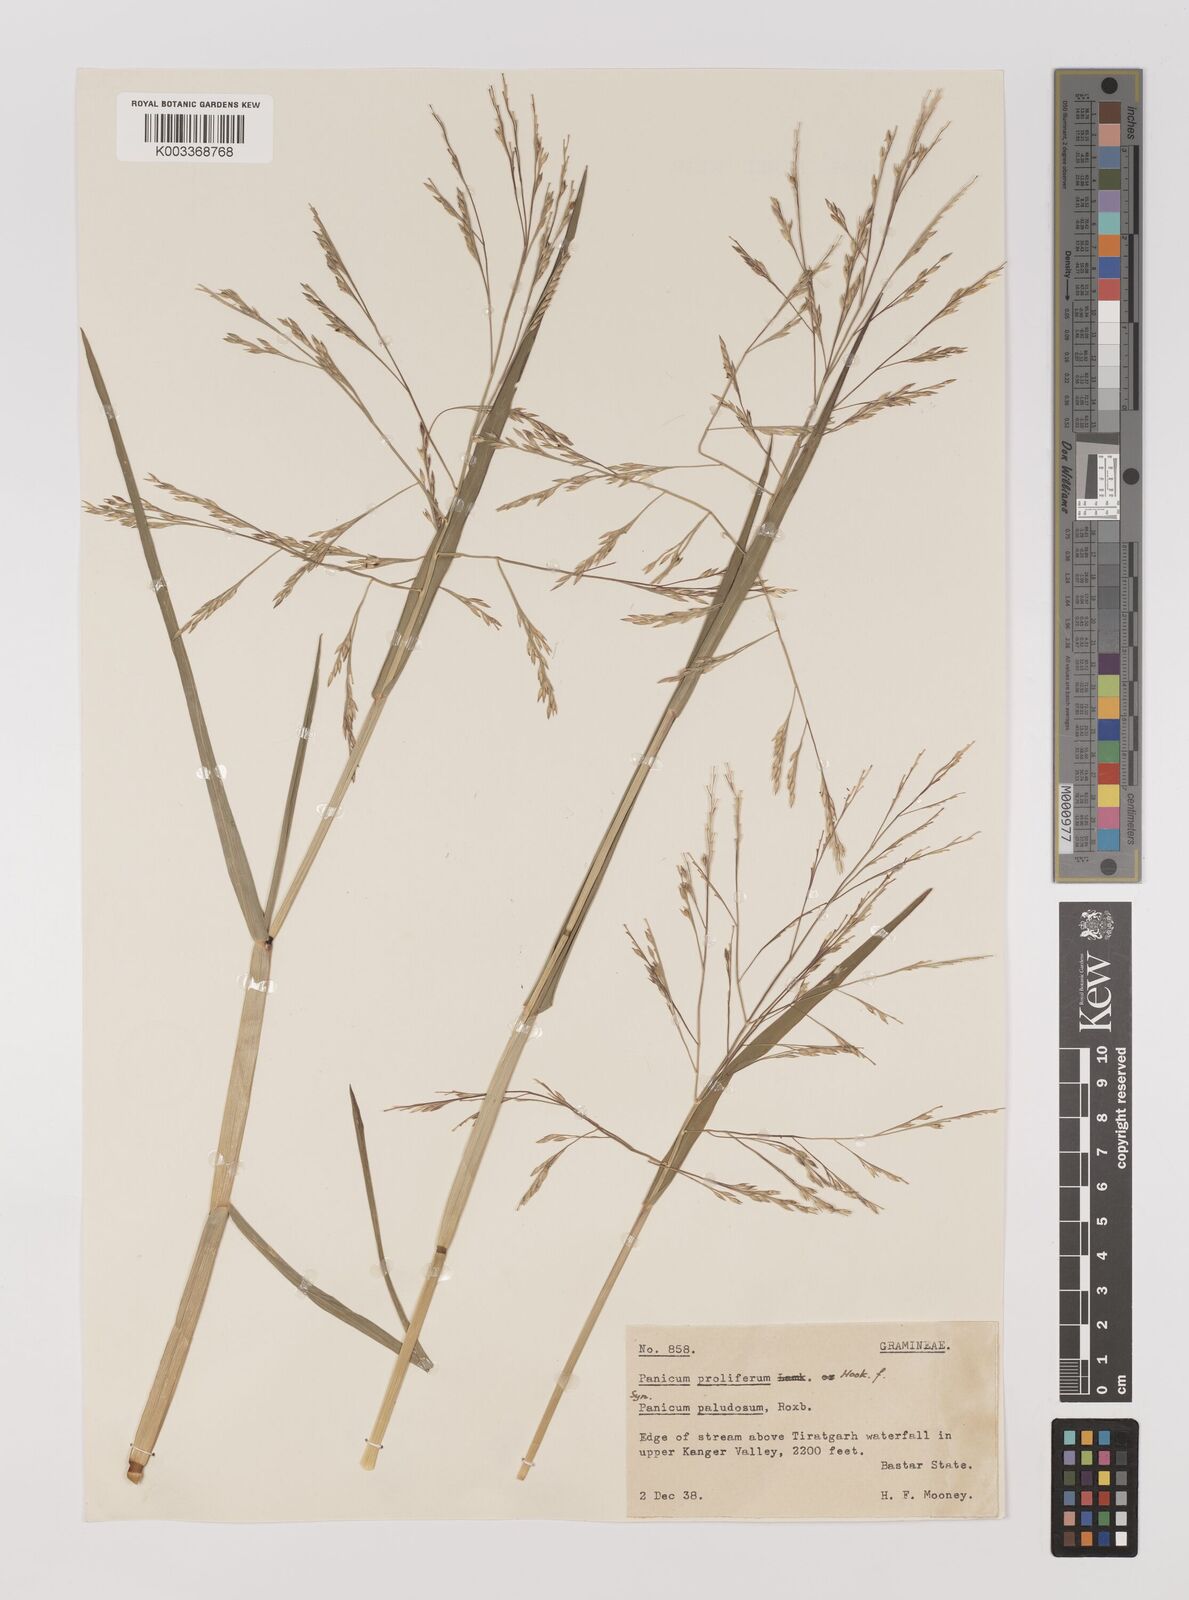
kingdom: Plantae
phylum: Tracheophyta
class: Liliopsida
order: Poales
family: Poaceae
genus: Louisiella
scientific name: Louisiella paludosa
